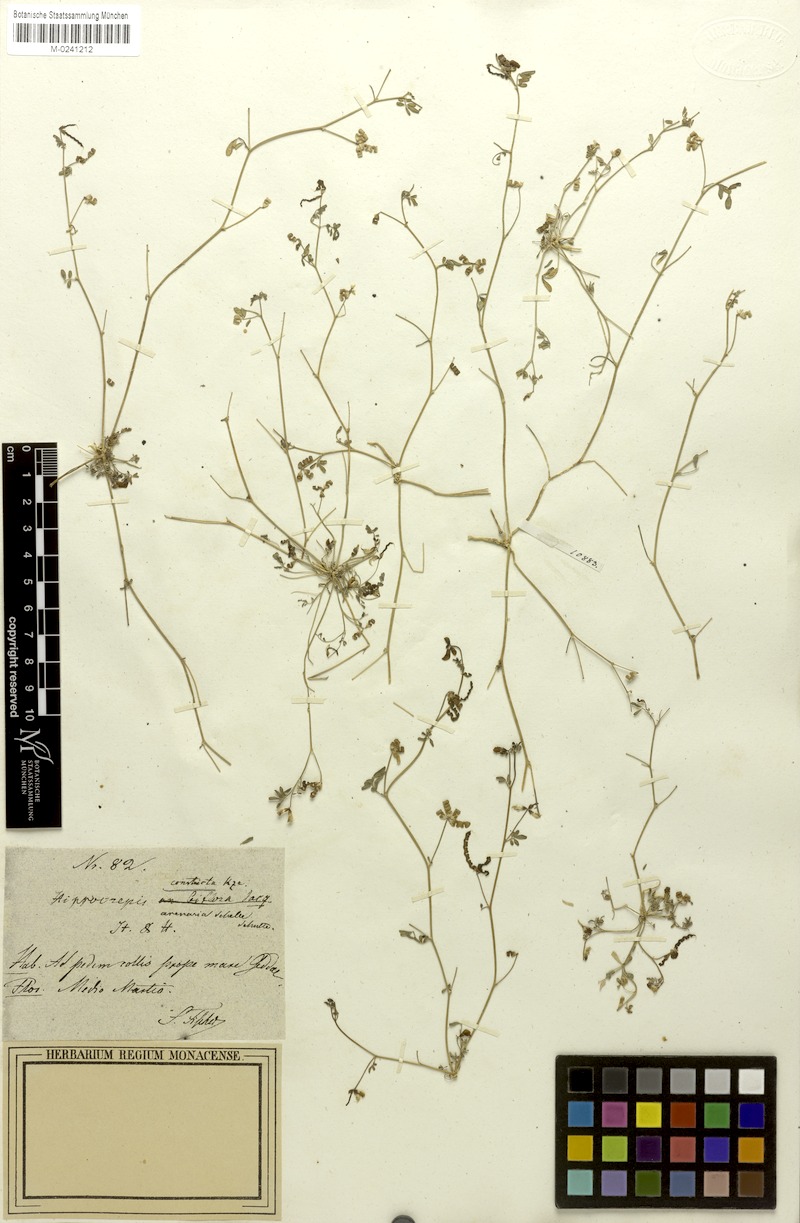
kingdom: Plantae
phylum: Tracheophyta
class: Magnoliopsida
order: Fabales
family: Fabaceae
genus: Hippocrepis
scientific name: Hippocrepis constricta
